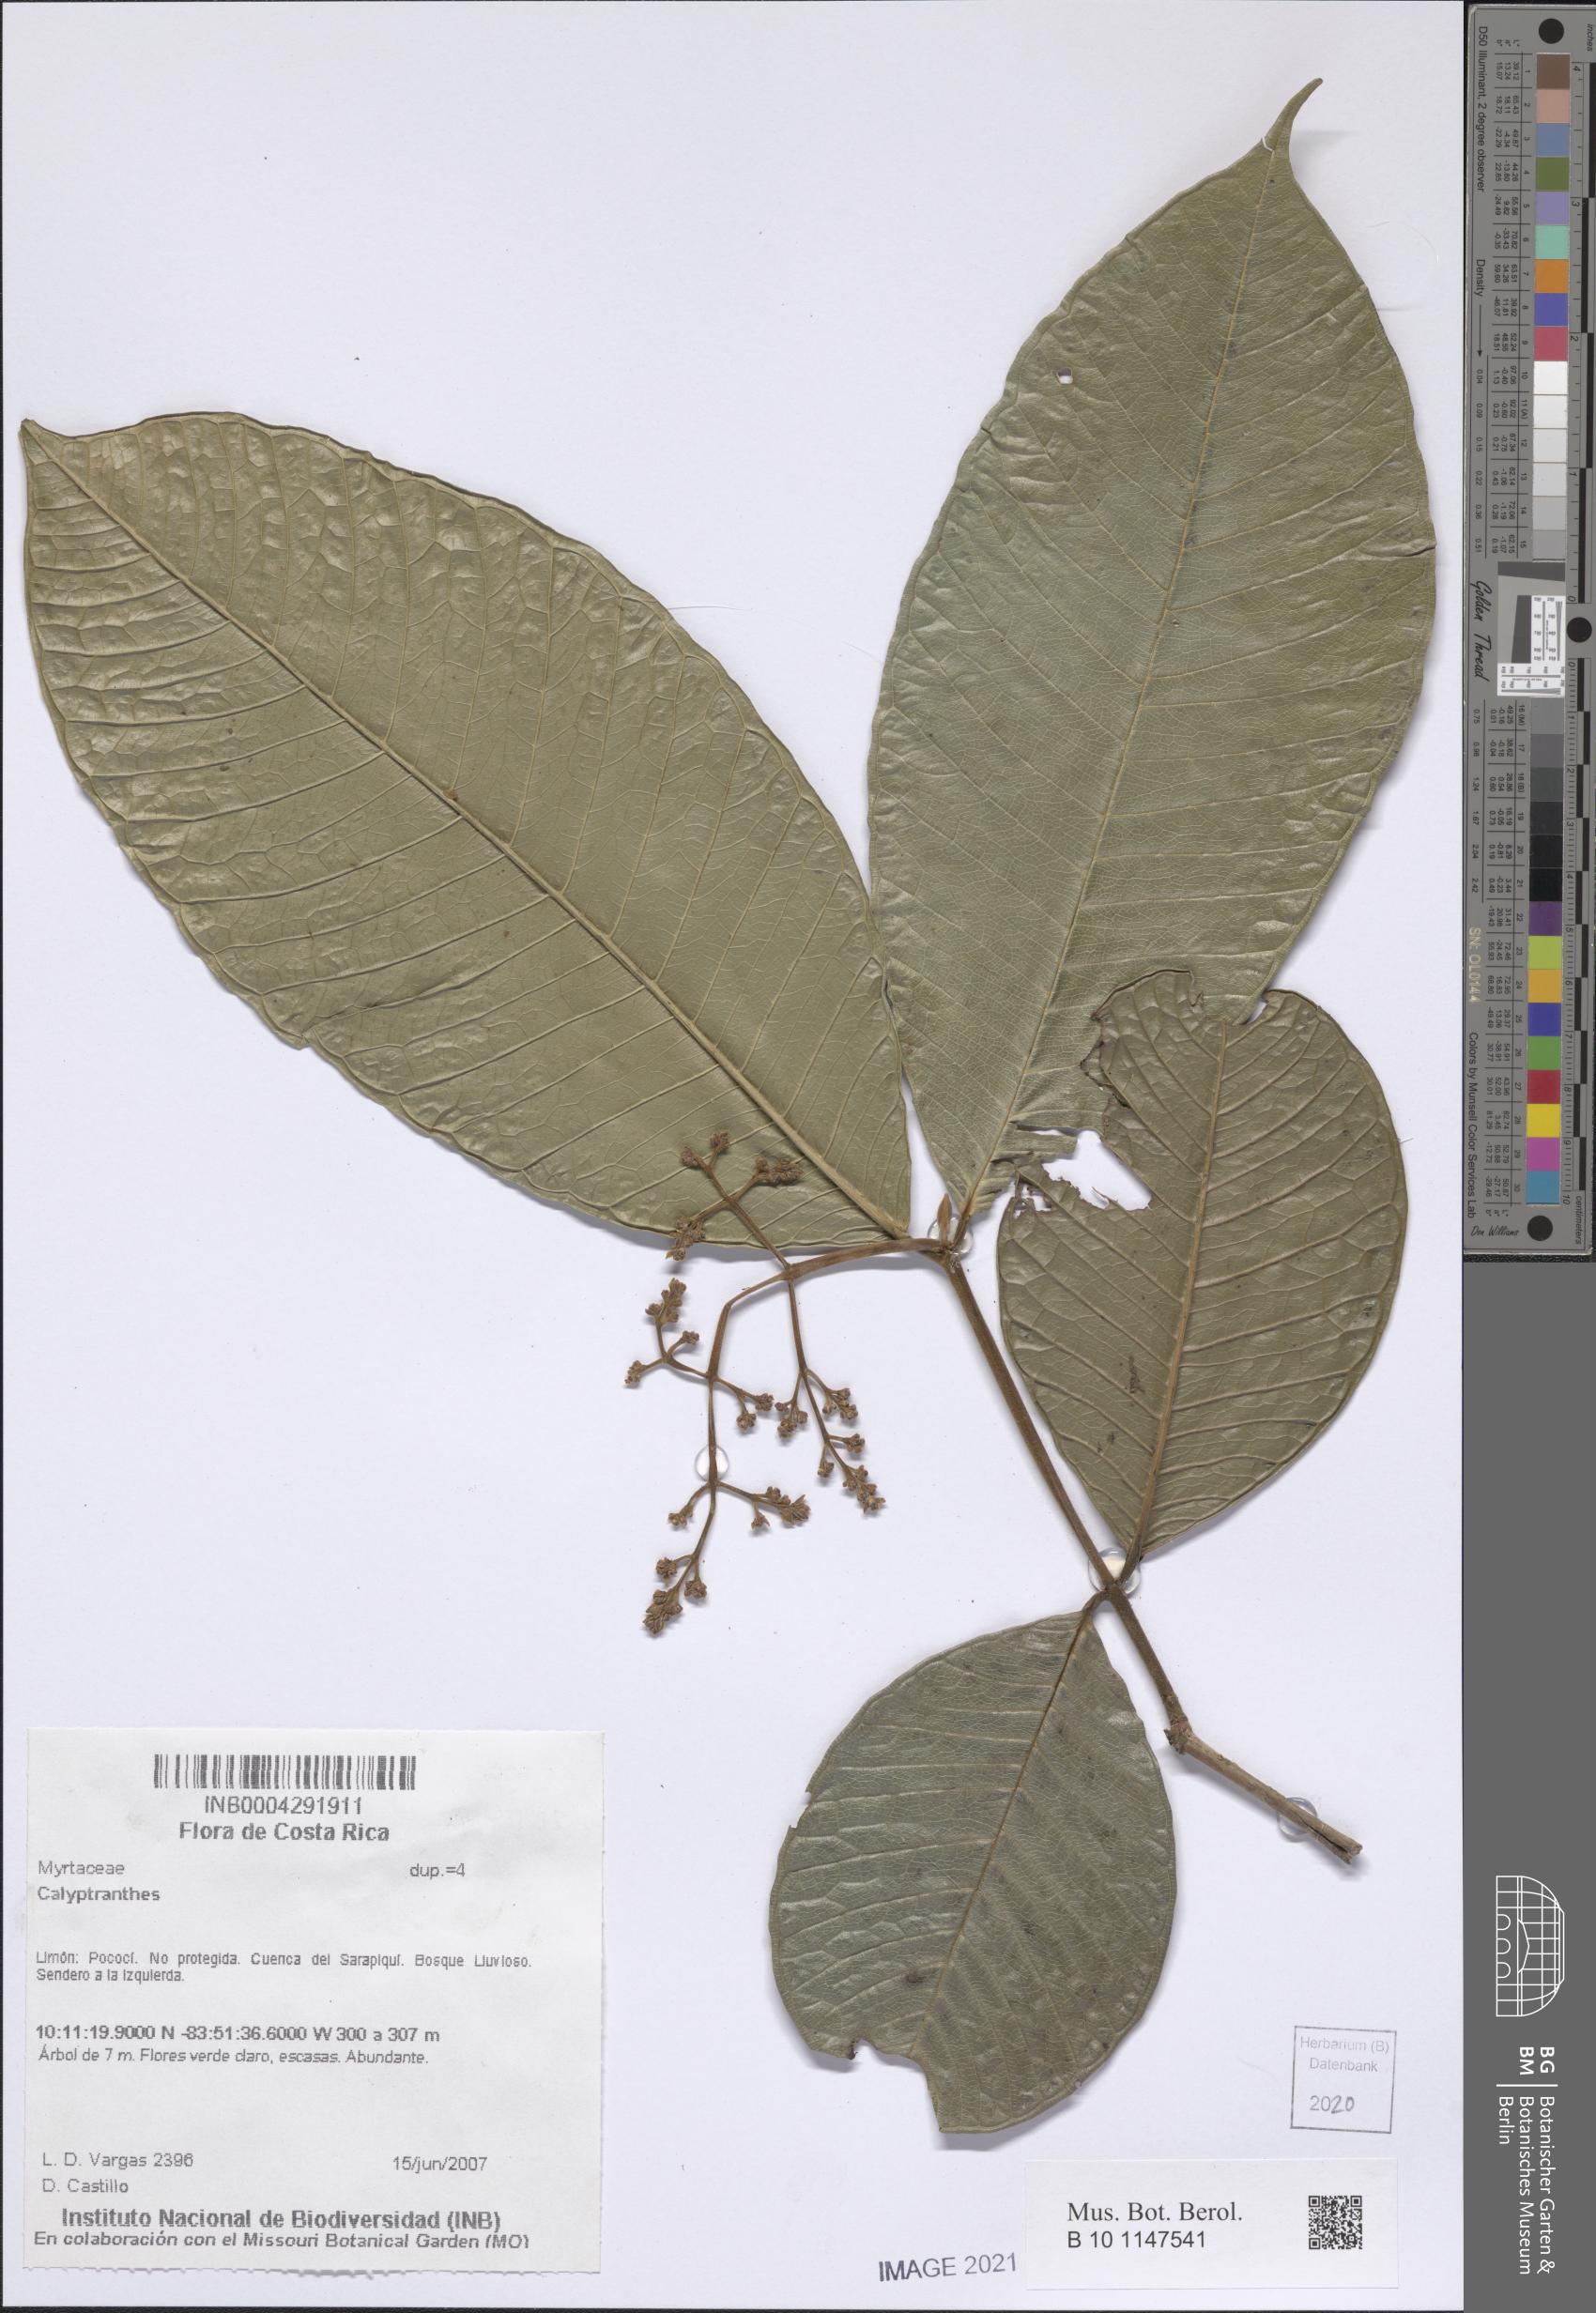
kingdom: Plantae
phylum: Tracheophyta
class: Magnoliopsida
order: Myrtales
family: Myrtaceae
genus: Calyptranthes
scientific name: Calyptranthes
